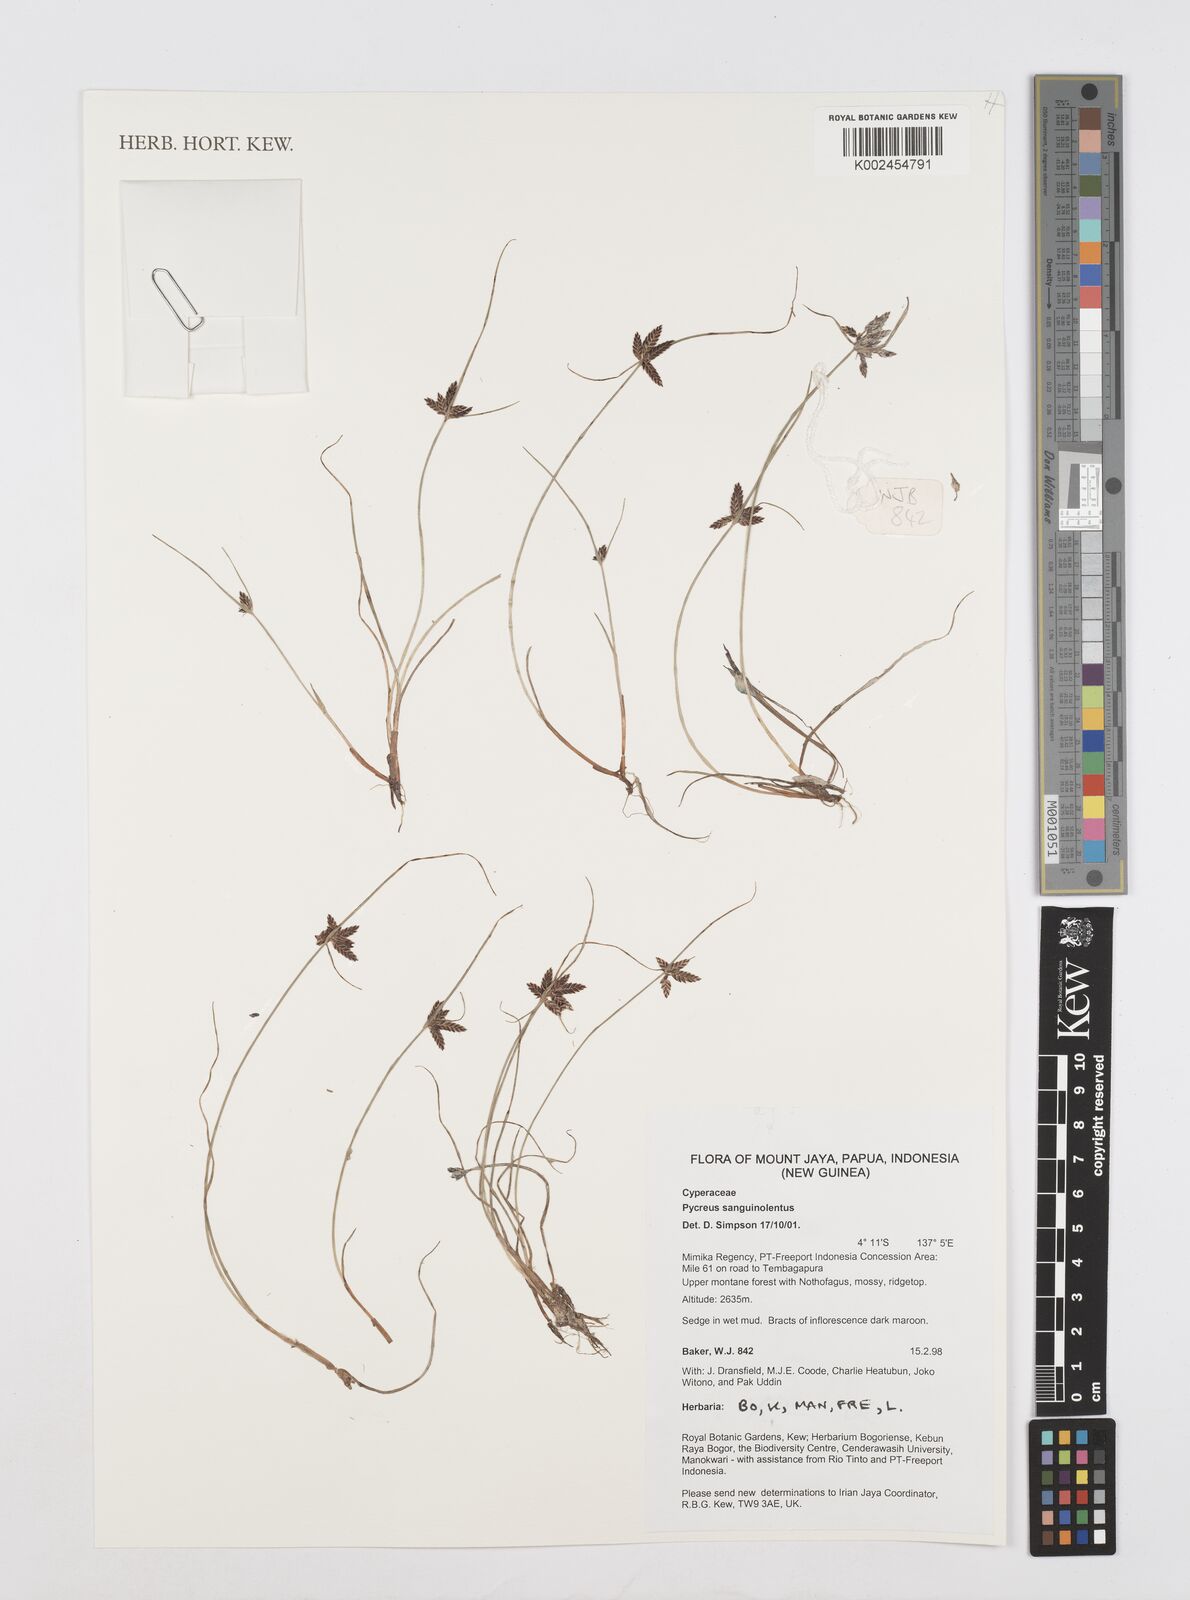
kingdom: Plantae
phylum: Tracheophyta
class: Liliopsida
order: Poales
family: Cyperaceae
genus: Cyperus
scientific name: Cyperus sanguinolentus
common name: Purpleglume flatsedge
